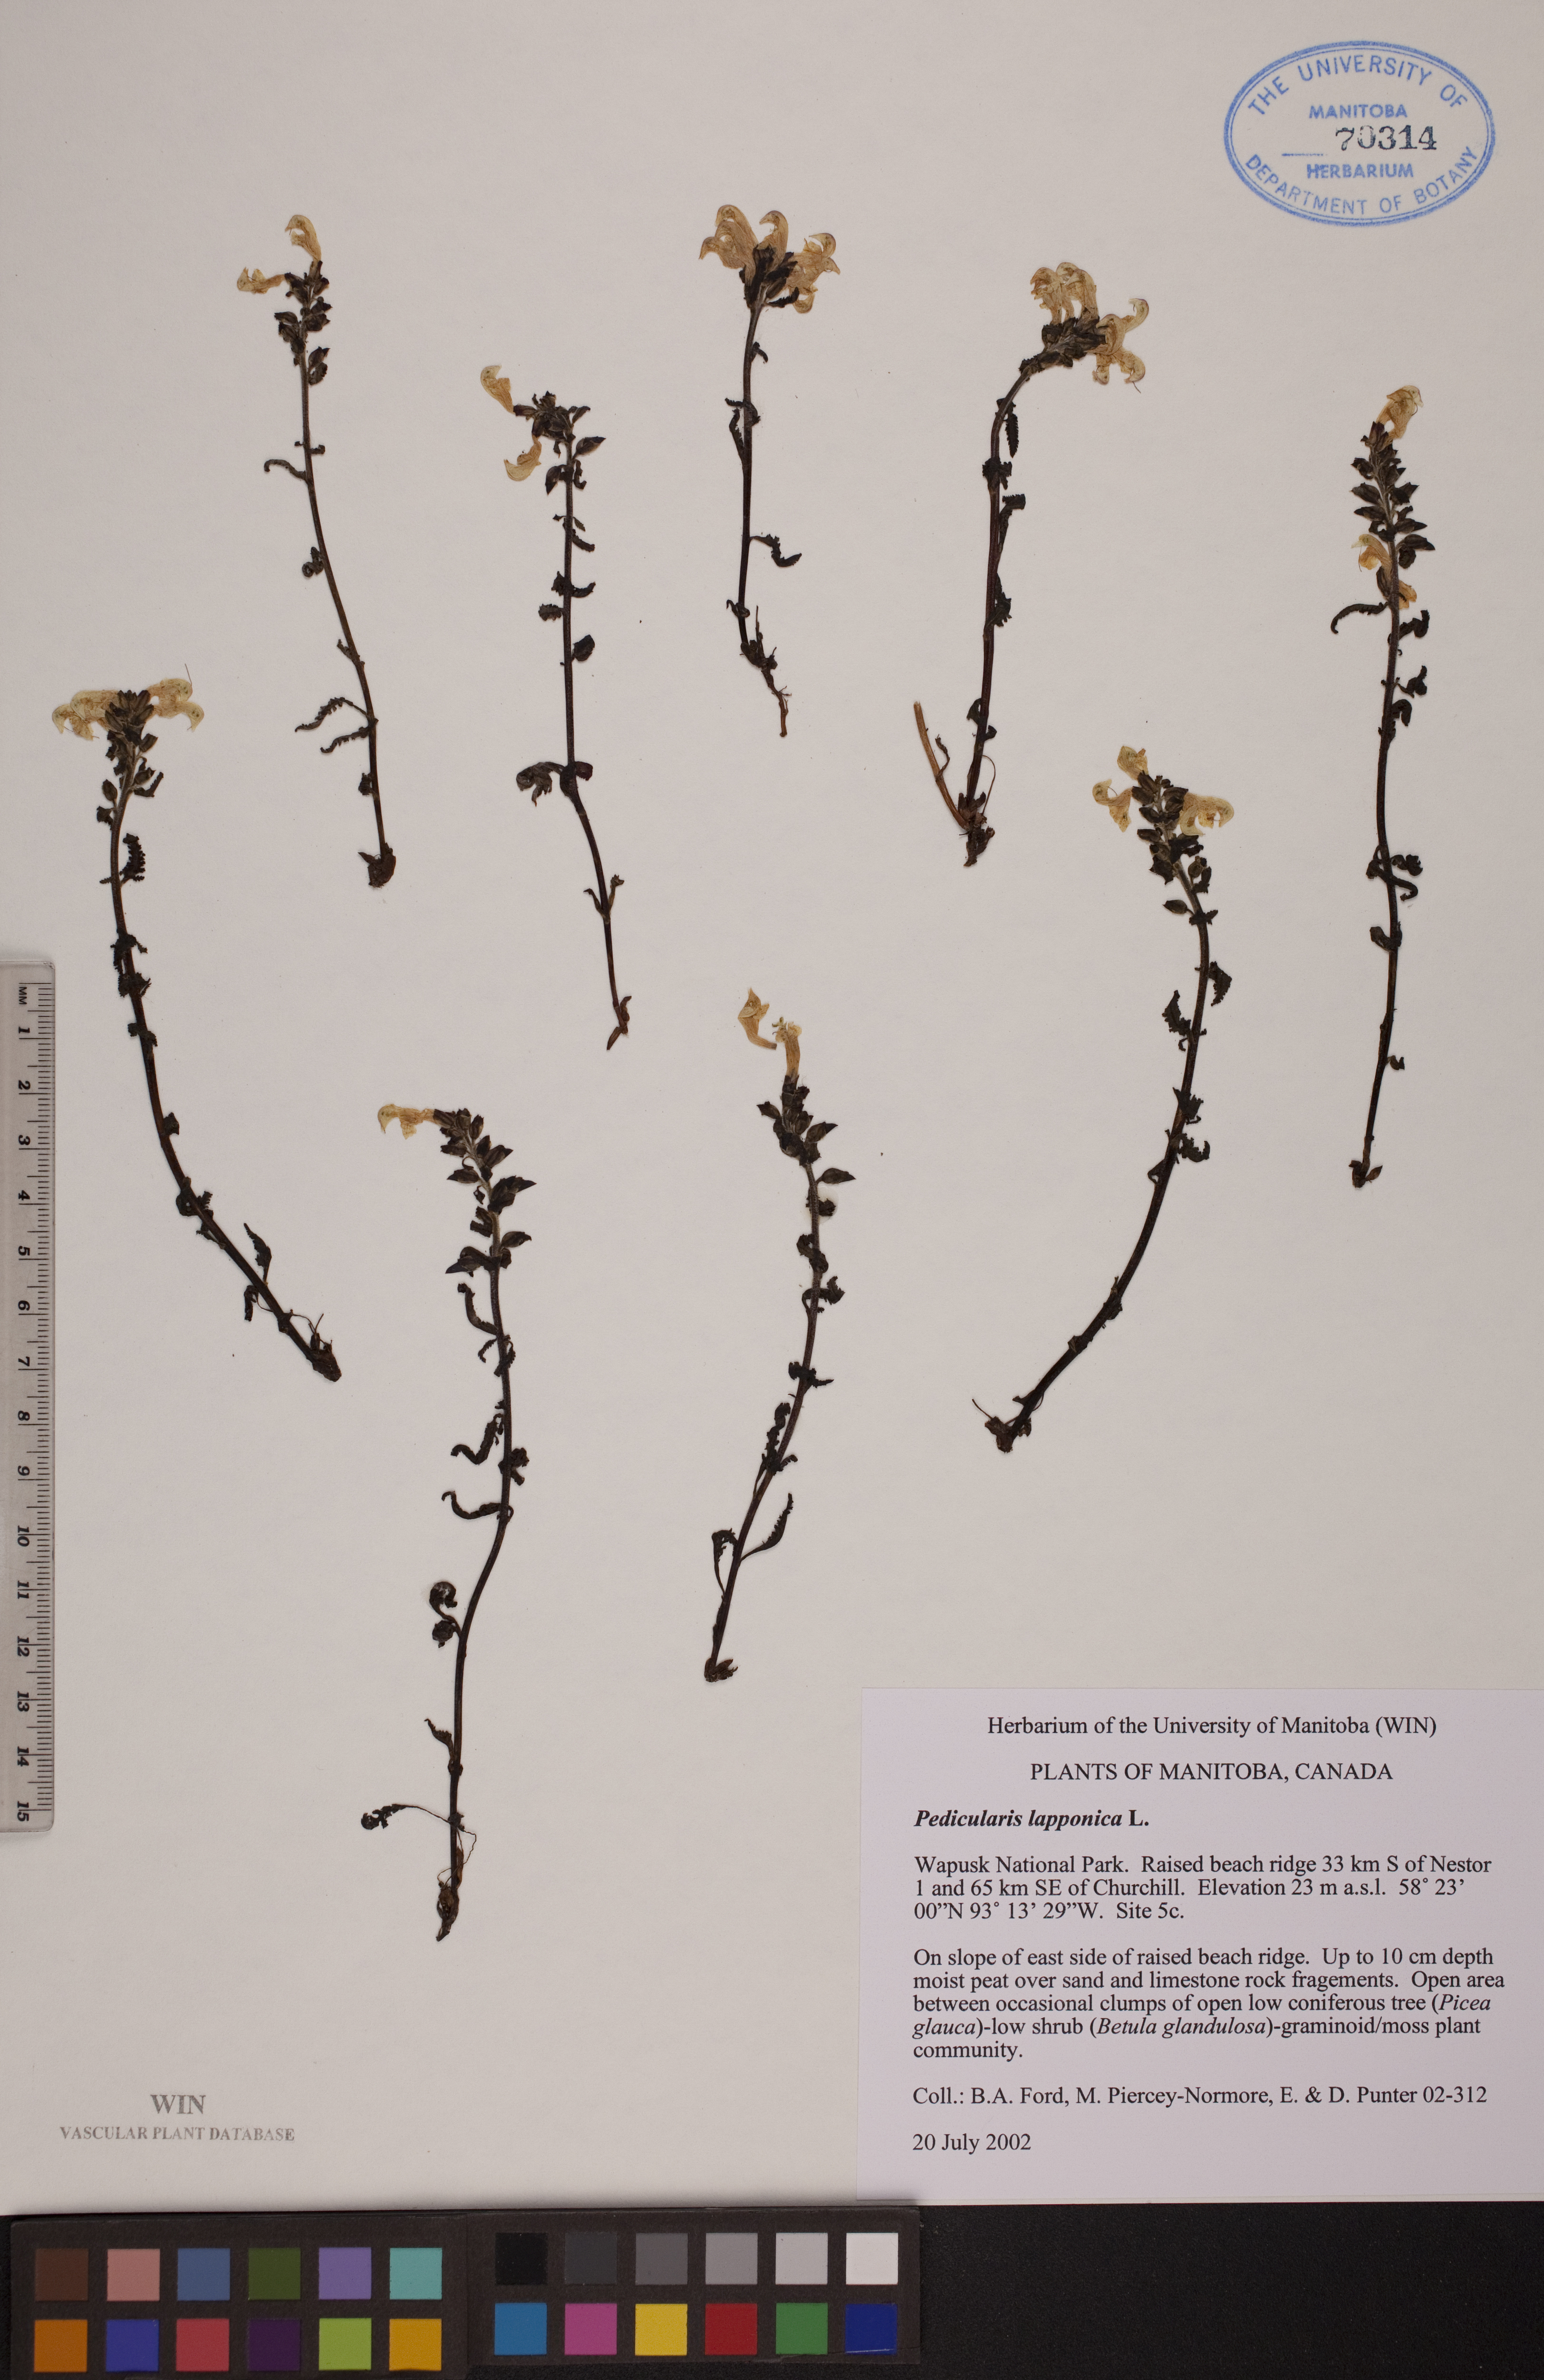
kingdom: Plantae
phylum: Tracheophyta
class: Magnoliopsida
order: Lamiales
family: Orobanchaceae
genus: Pedicularis
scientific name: Pedicularis lapponica
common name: Lapland lousewort
